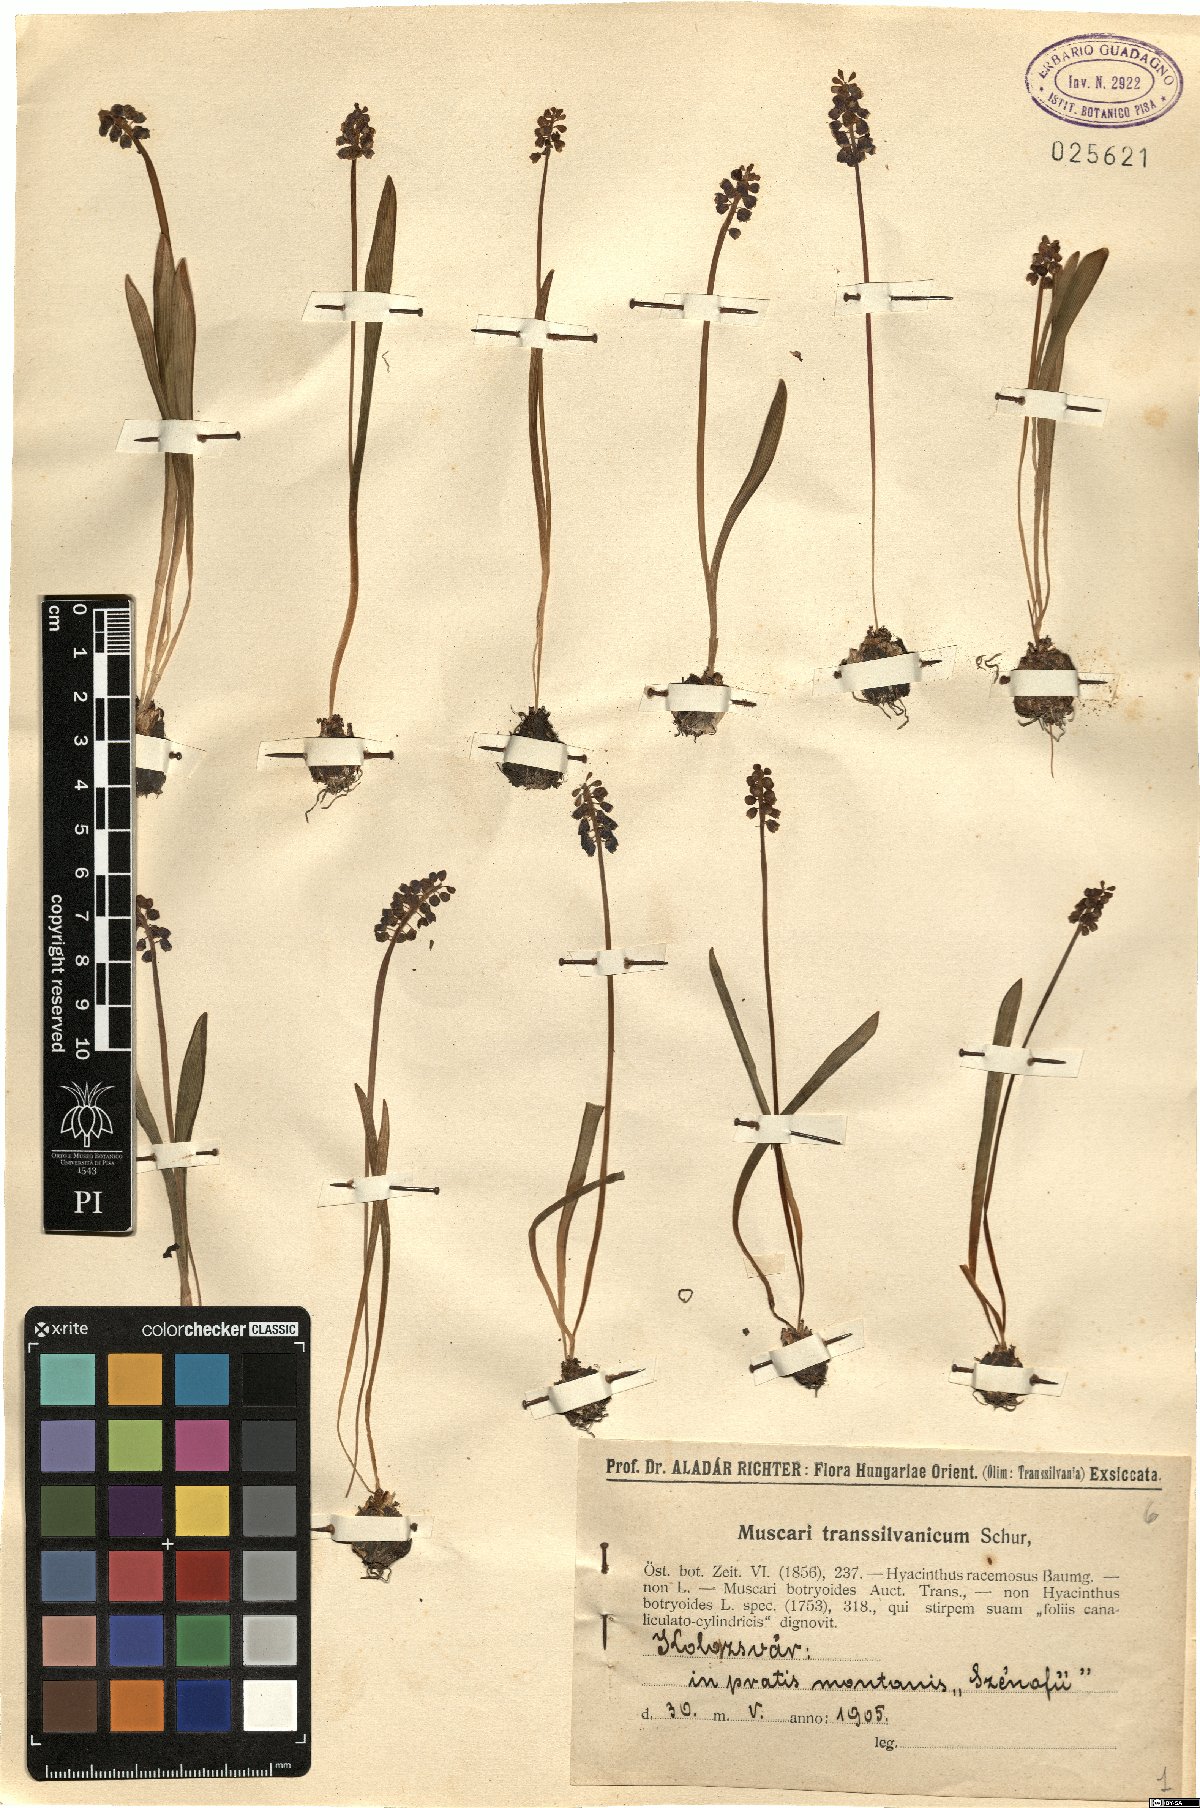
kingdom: Plantae
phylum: Tracheophyta
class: Liliopsida
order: Asparagales
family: Asparagaceae
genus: Muscari
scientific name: Muscari botryoides
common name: Compact grape-hyacinth
